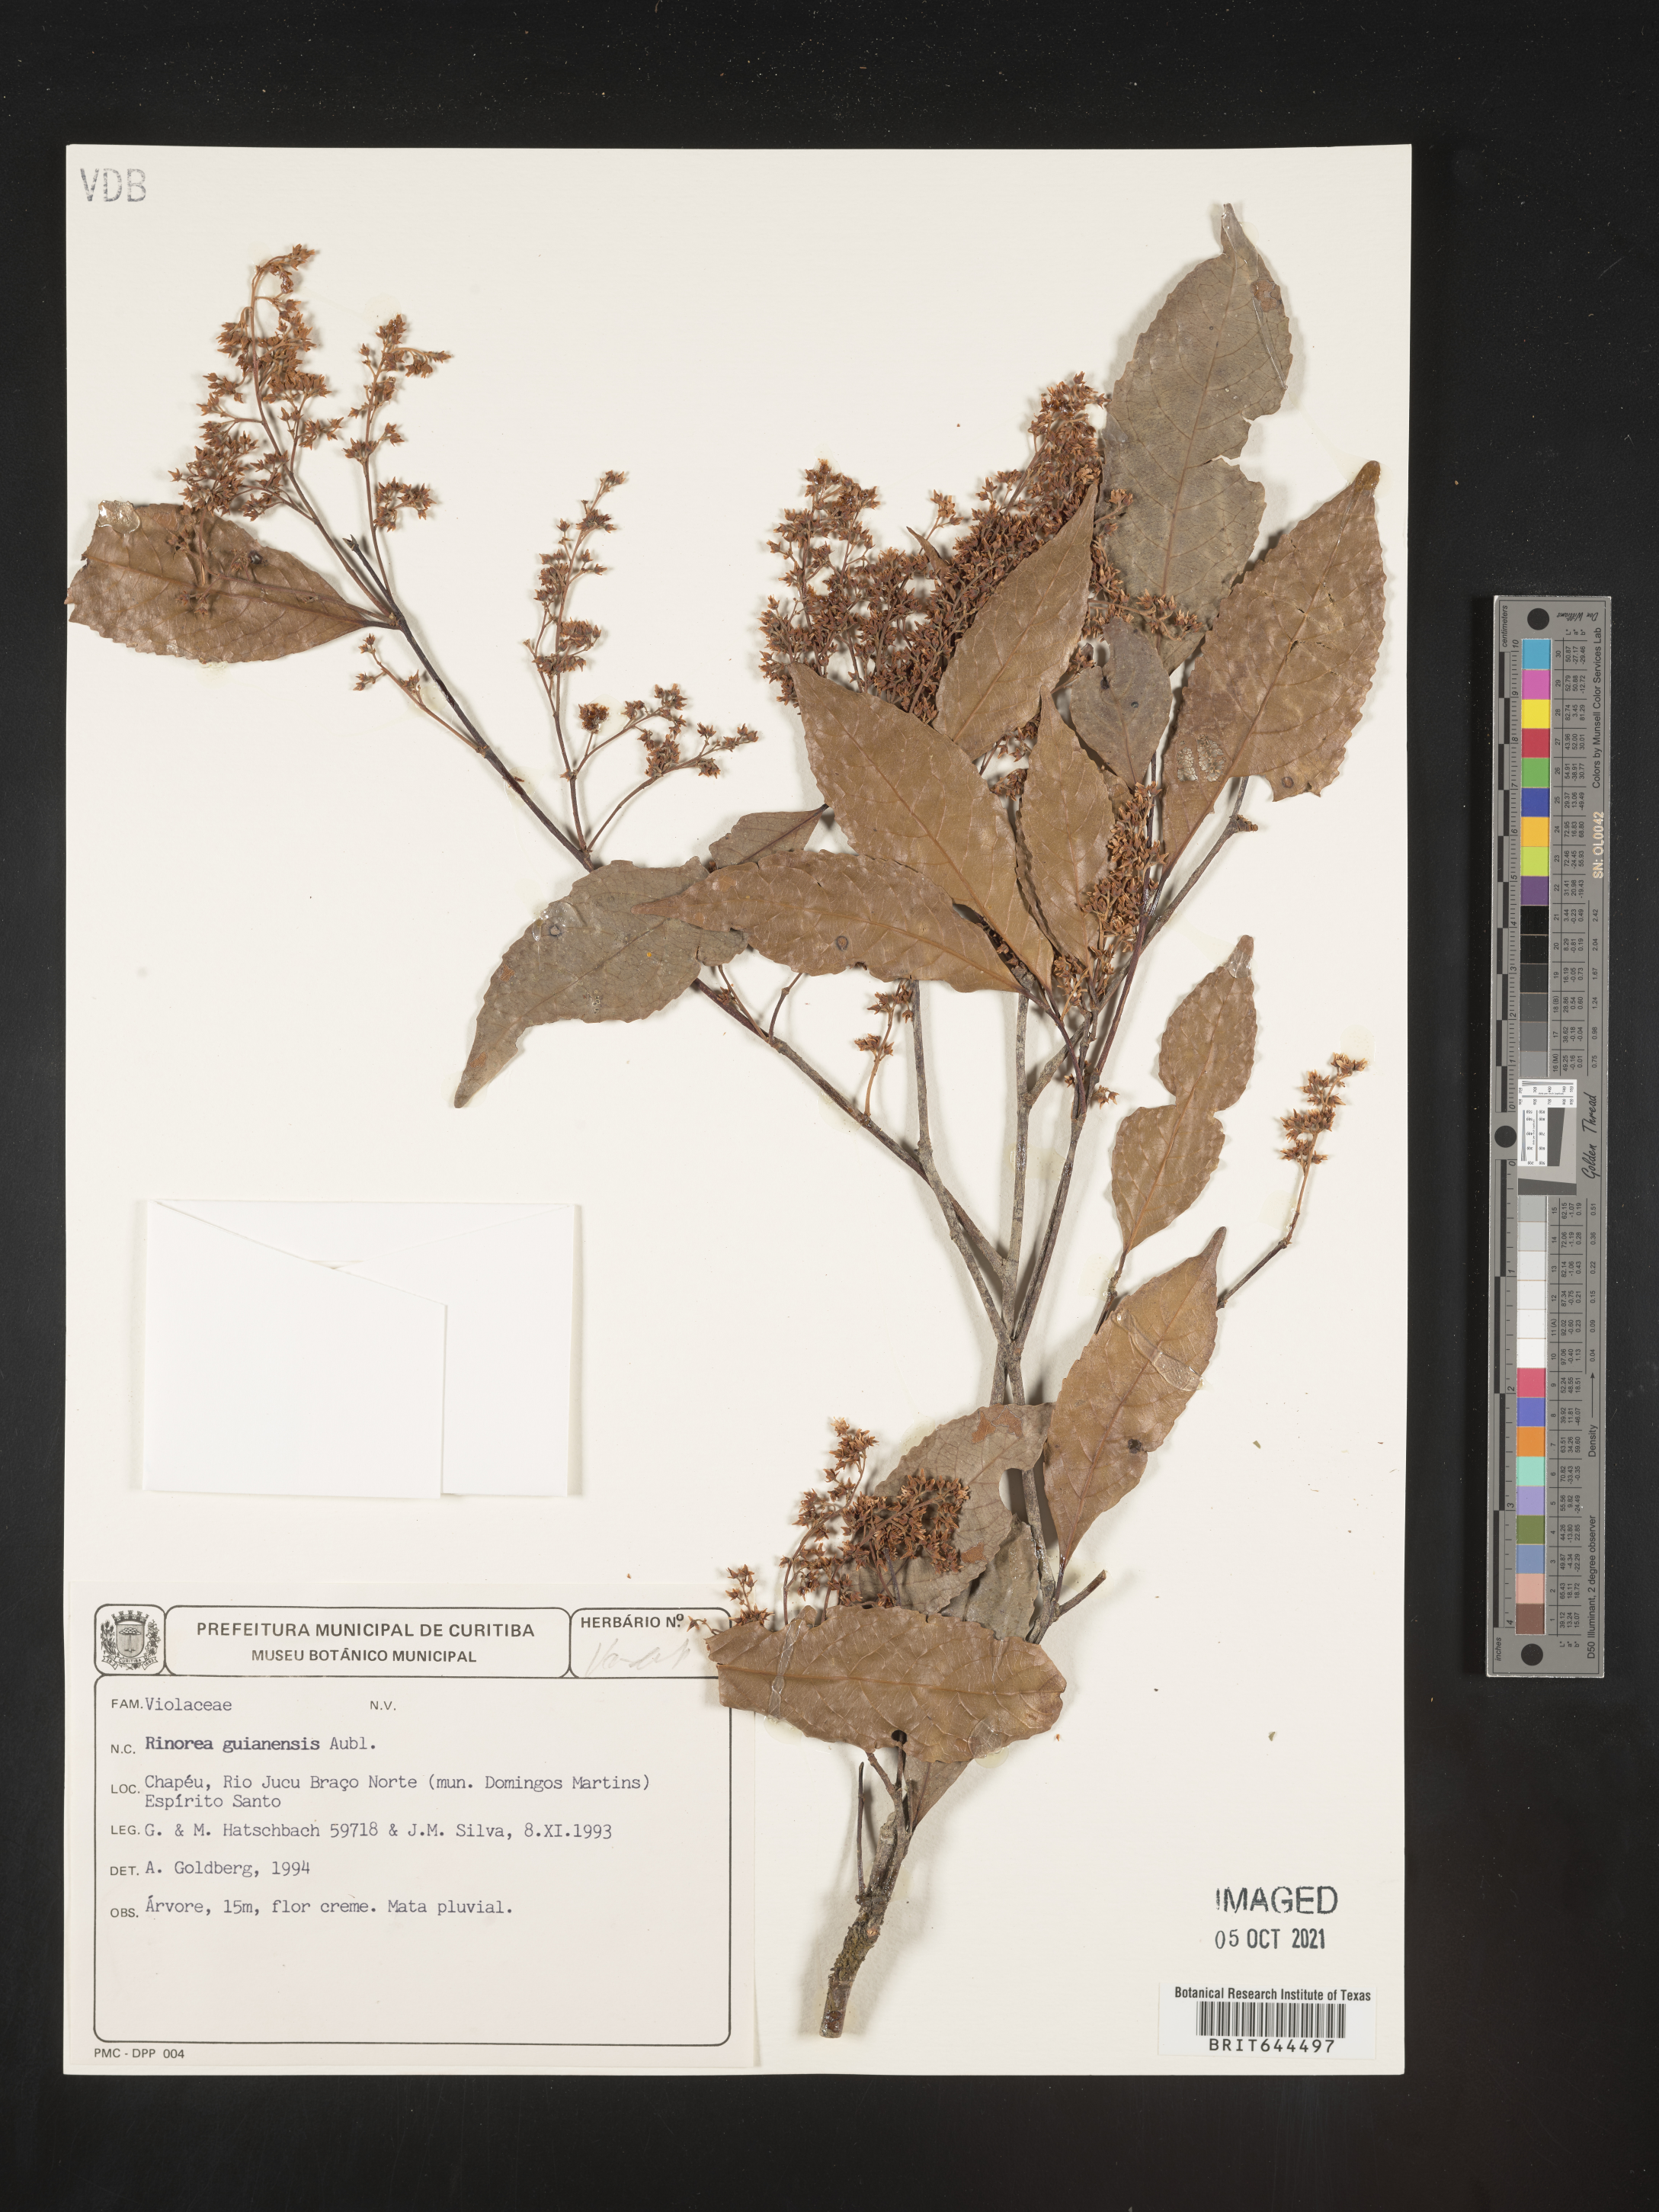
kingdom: Plantae
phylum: Tracheophyta
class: Magnoliopsida
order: Malpighiales
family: Violaceae
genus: Rinorea
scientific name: Rinorea
